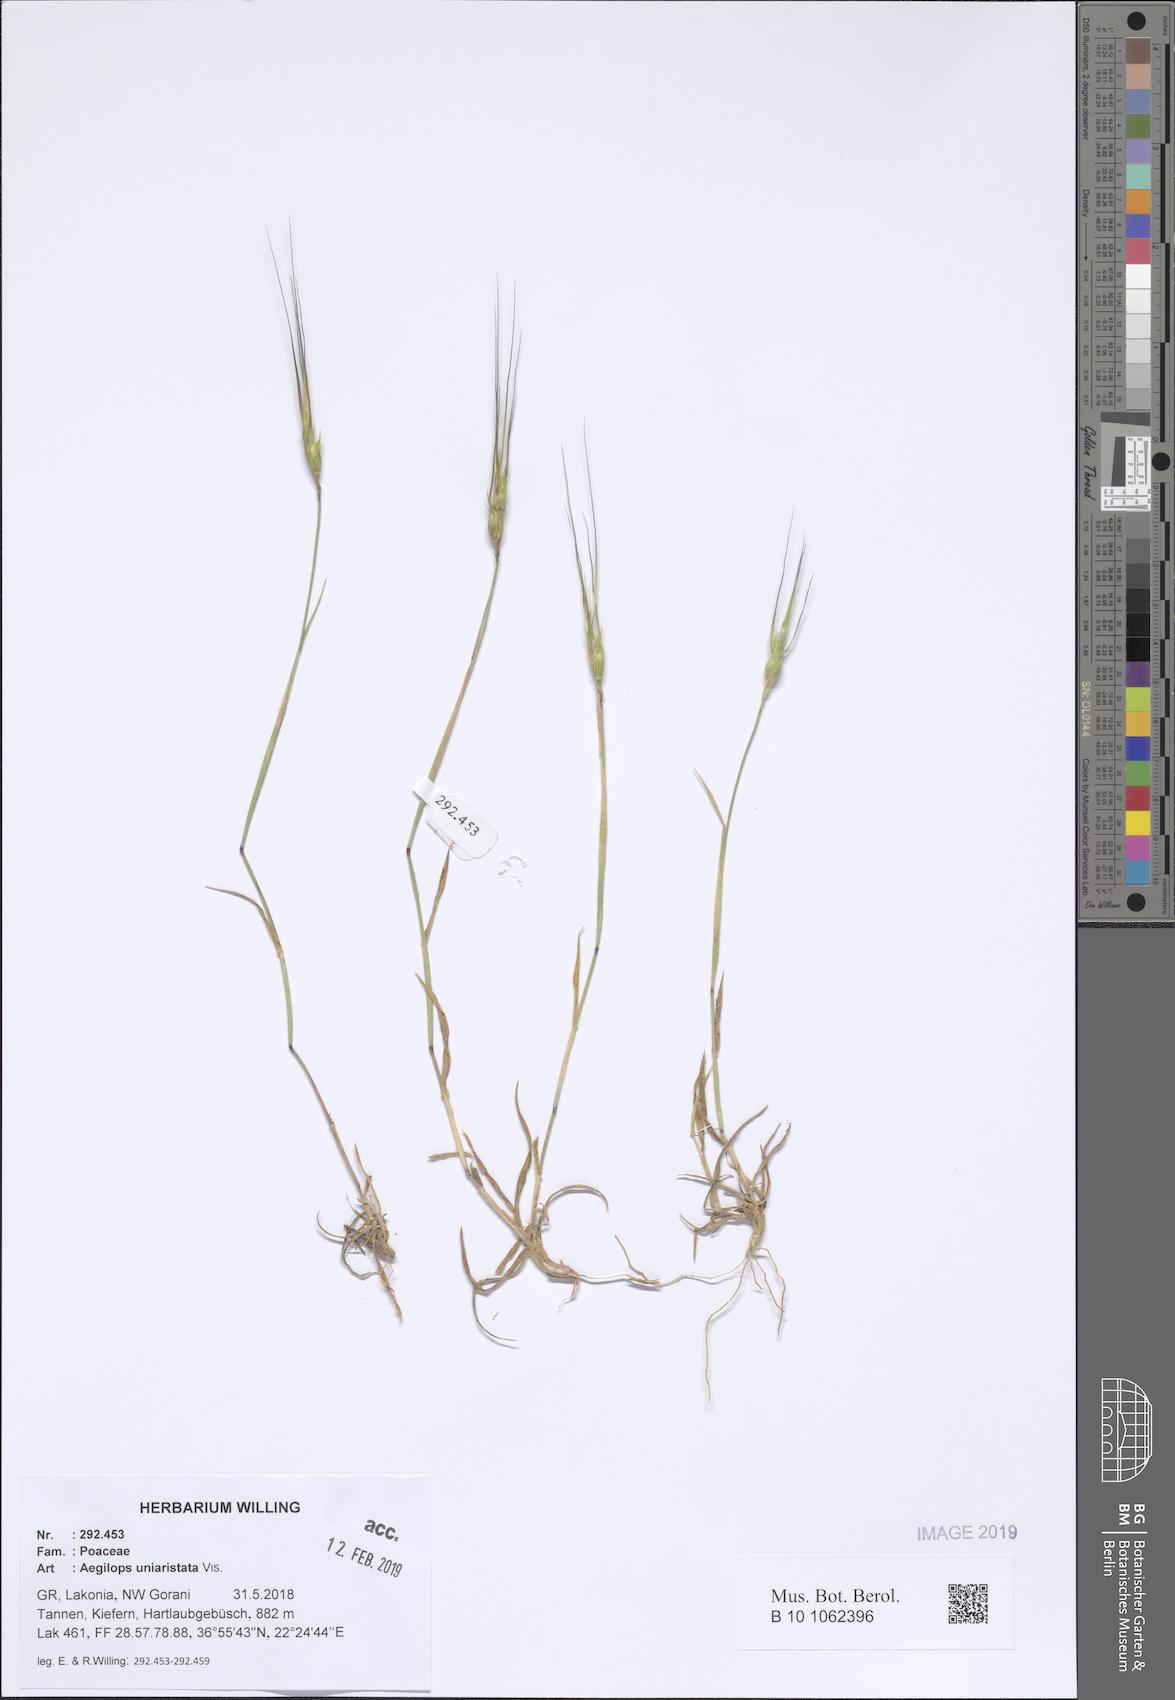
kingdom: Plantae
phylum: Tracheophyta
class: Liliopsida
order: Poales
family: Poaceae
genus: Aegilops
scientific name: Aegilops uniaristata
